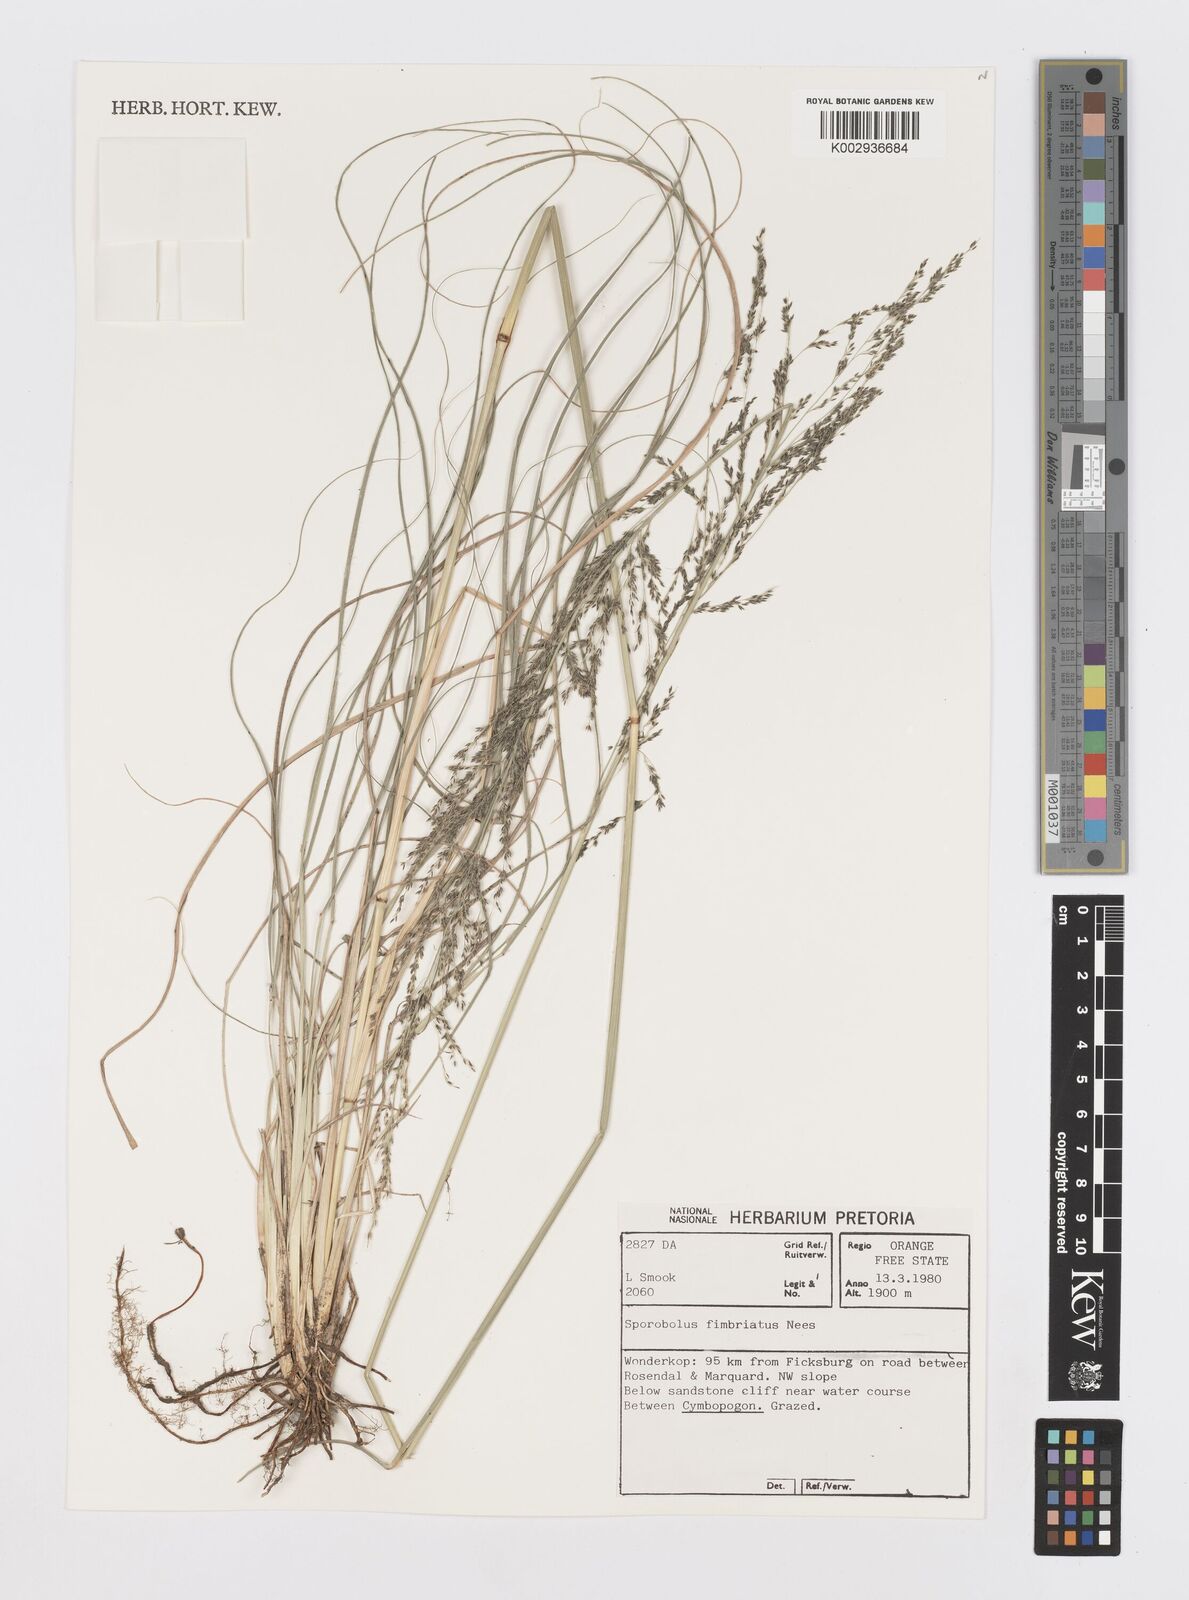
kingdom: Plantae
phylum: Tracheophyta
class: Liliopsida
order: Poales
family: Poaceae
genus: Sporobolus
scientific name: Sporobolus fimbriatus
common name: Fringed dropseed
